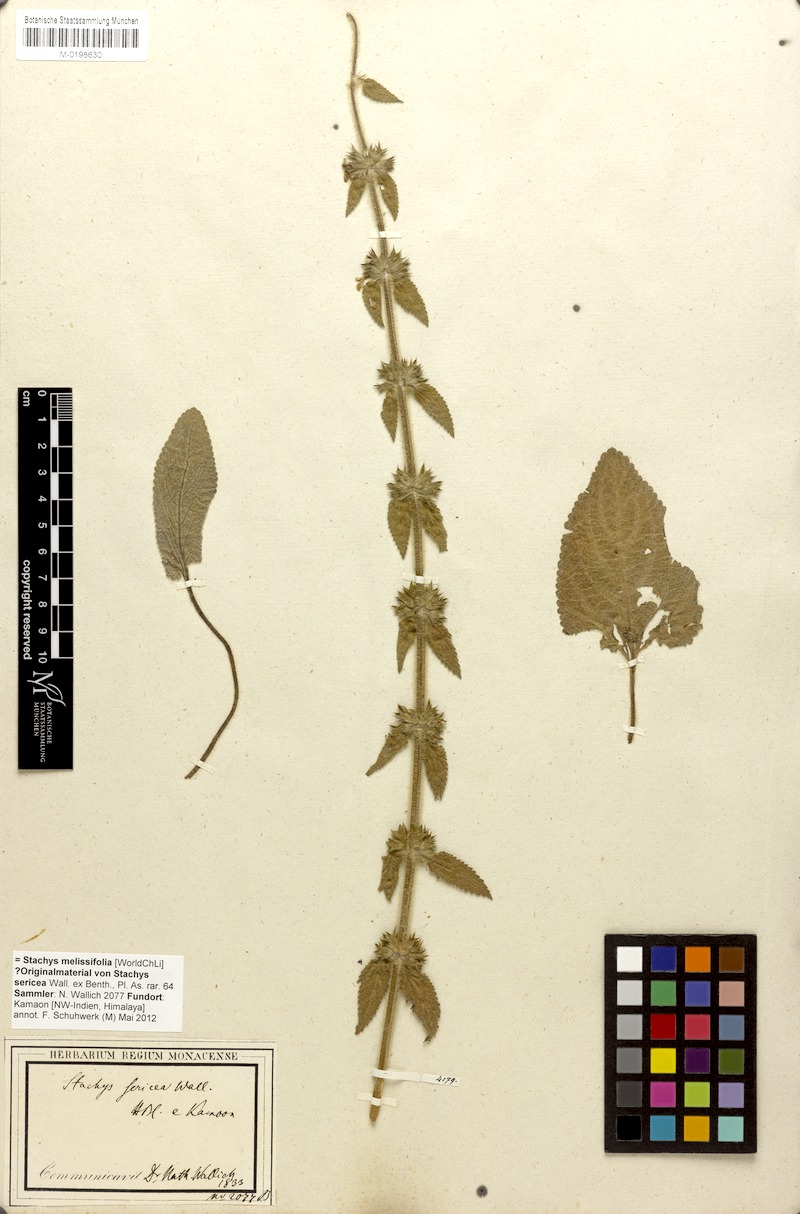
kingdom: Plantae
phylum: Tracheophyta
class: Magnoliopsida
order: Lamiales
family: Lamiaceae
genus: Stachys
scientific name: Stachys splendens
